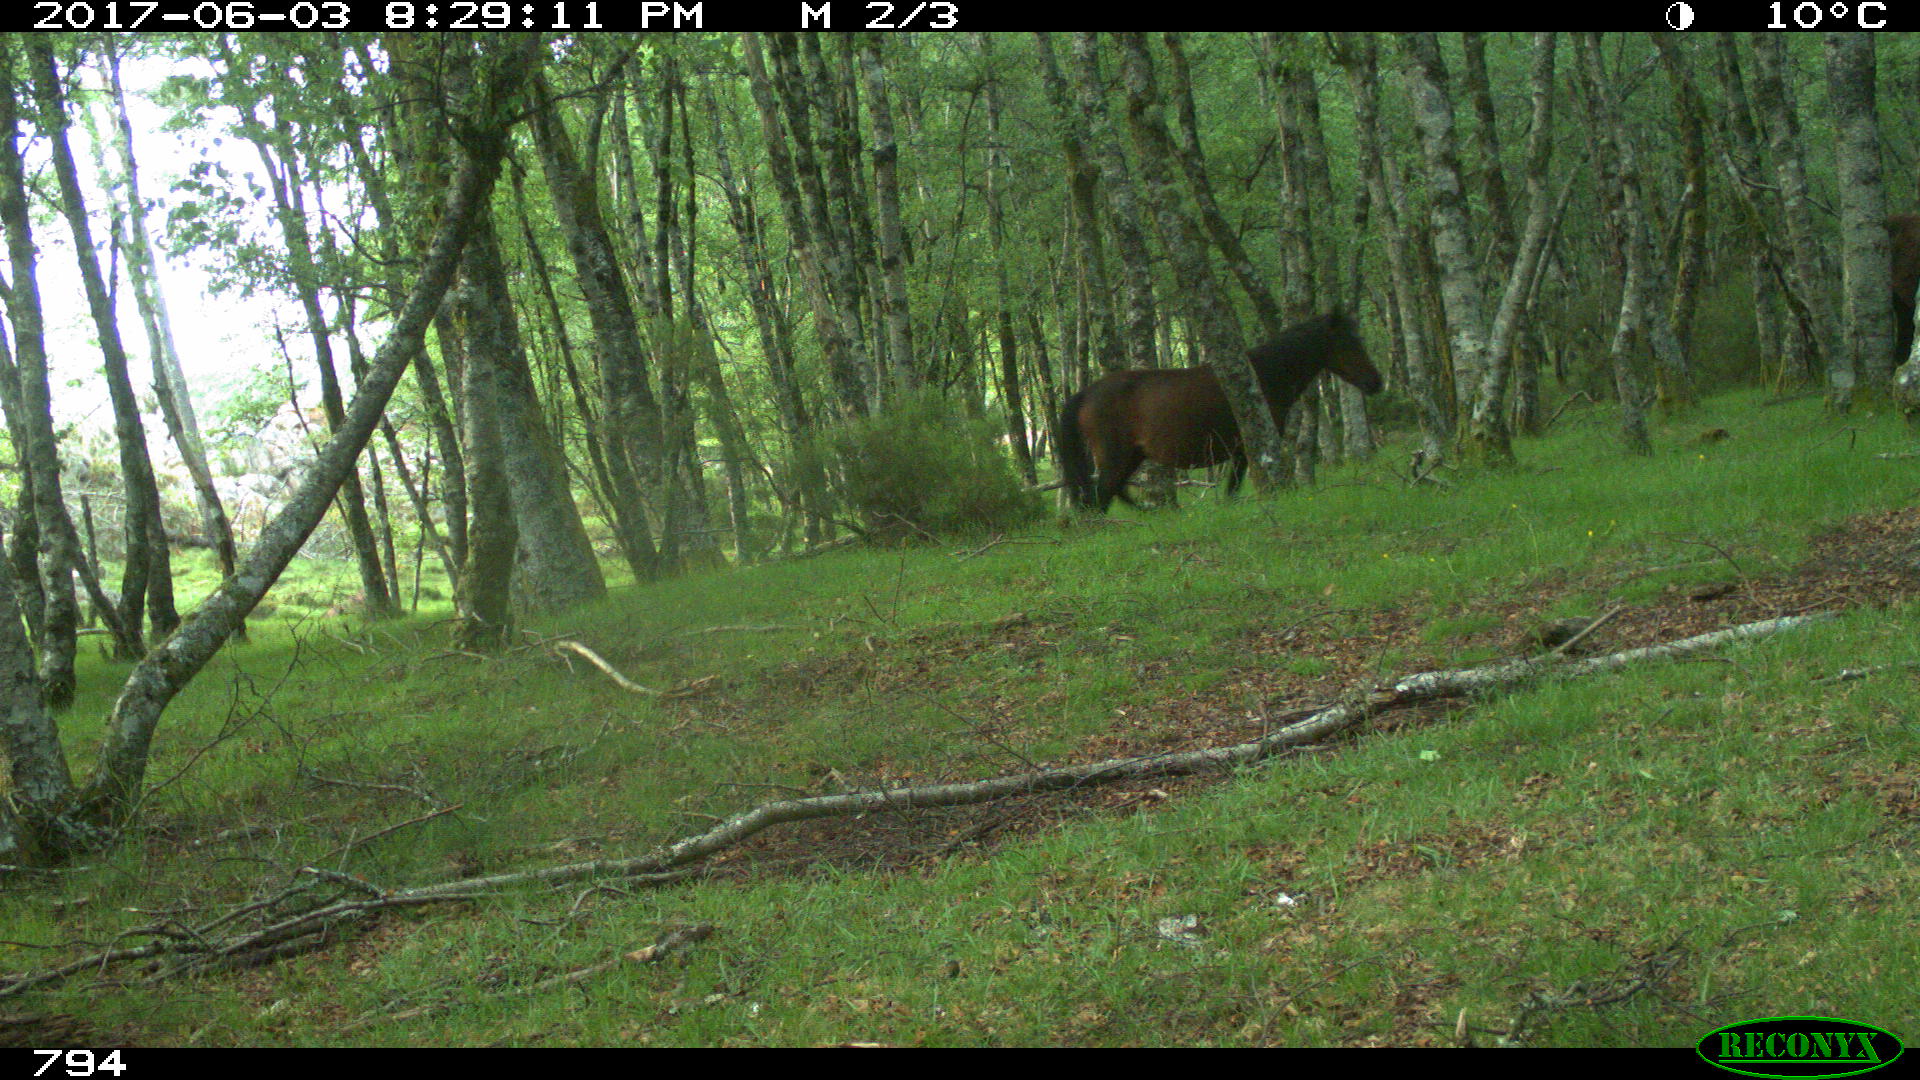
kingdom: Animalia
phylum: Chordata
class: Mammalia
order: Perissodactyla
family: Equidae
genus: Equus
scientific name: Equus caballus
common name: Horse
